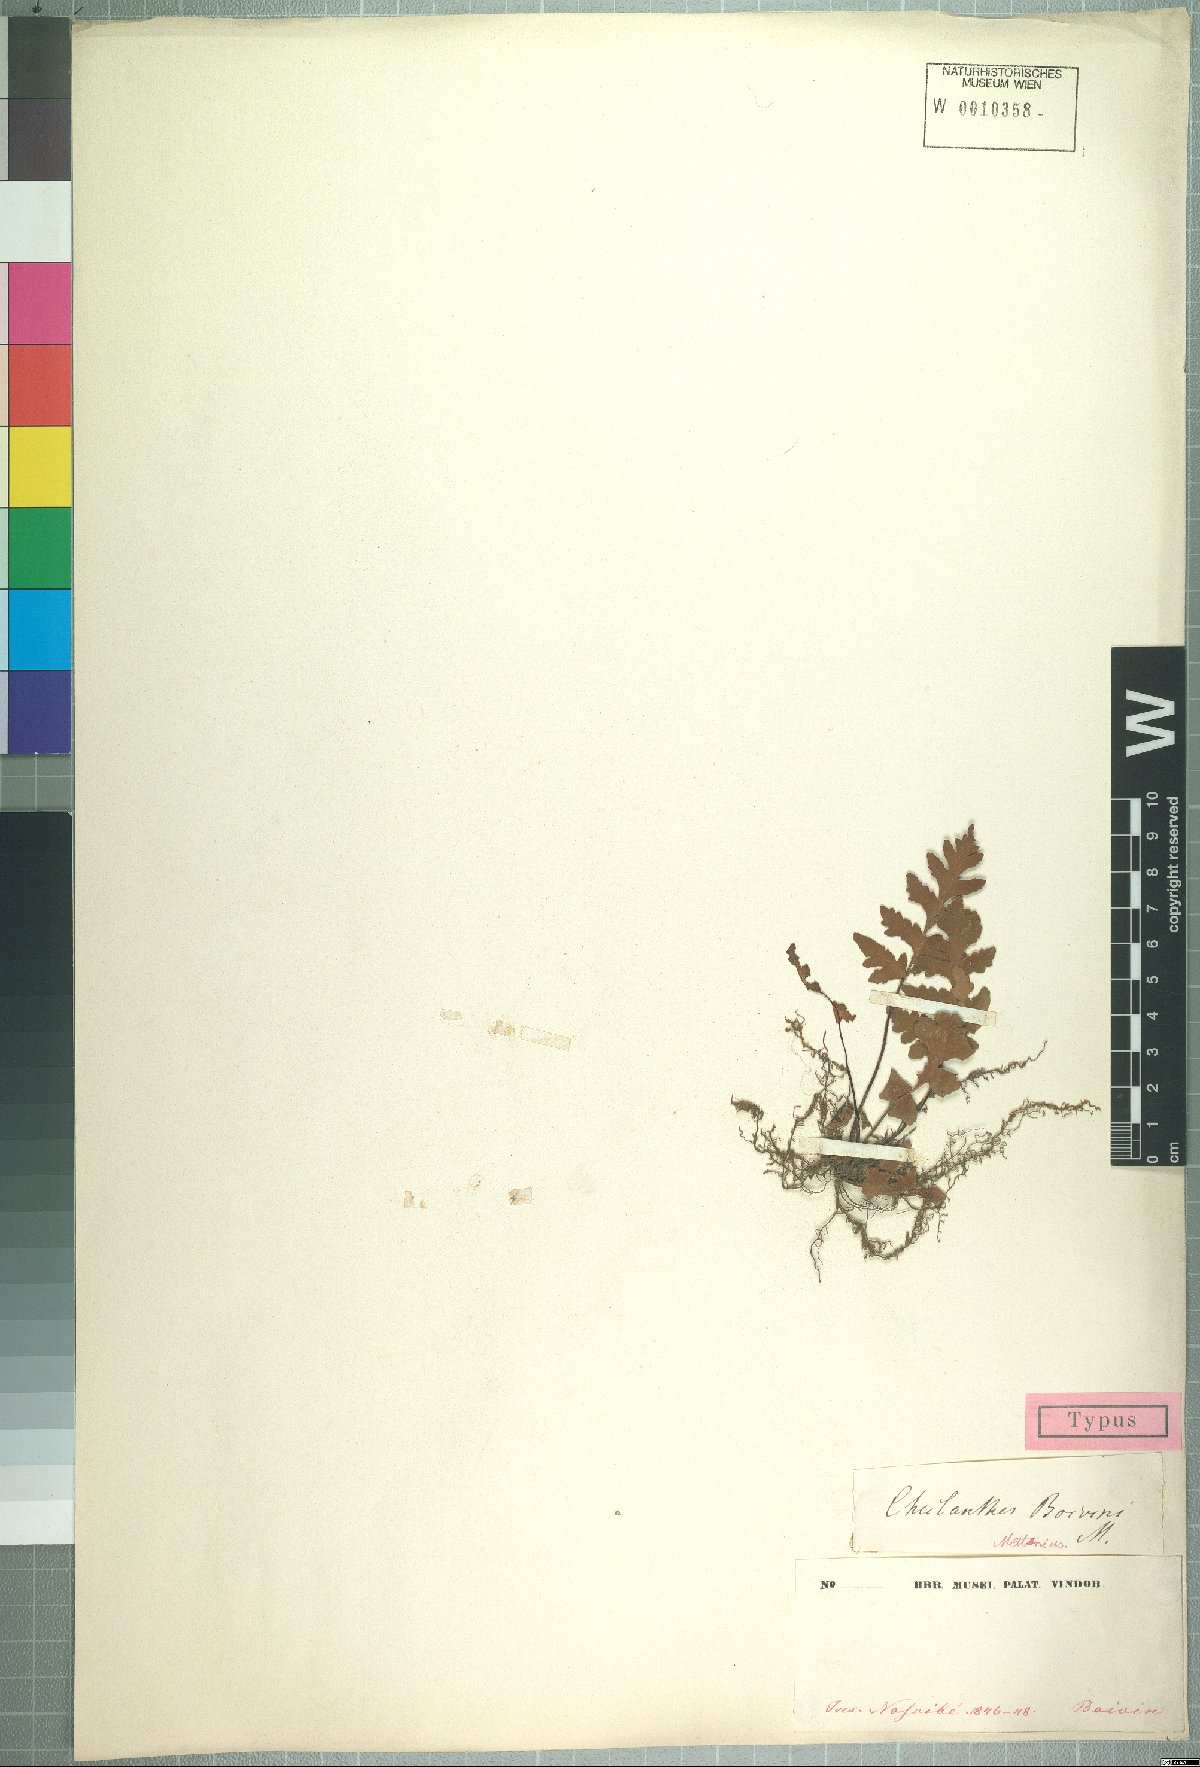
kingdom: Plantae
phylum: Tracheophyta
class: Polypodiopsida
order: Polypodiales
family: Pteridaceae
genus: Cheilanthes
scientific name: Cheilanthes boivinii
